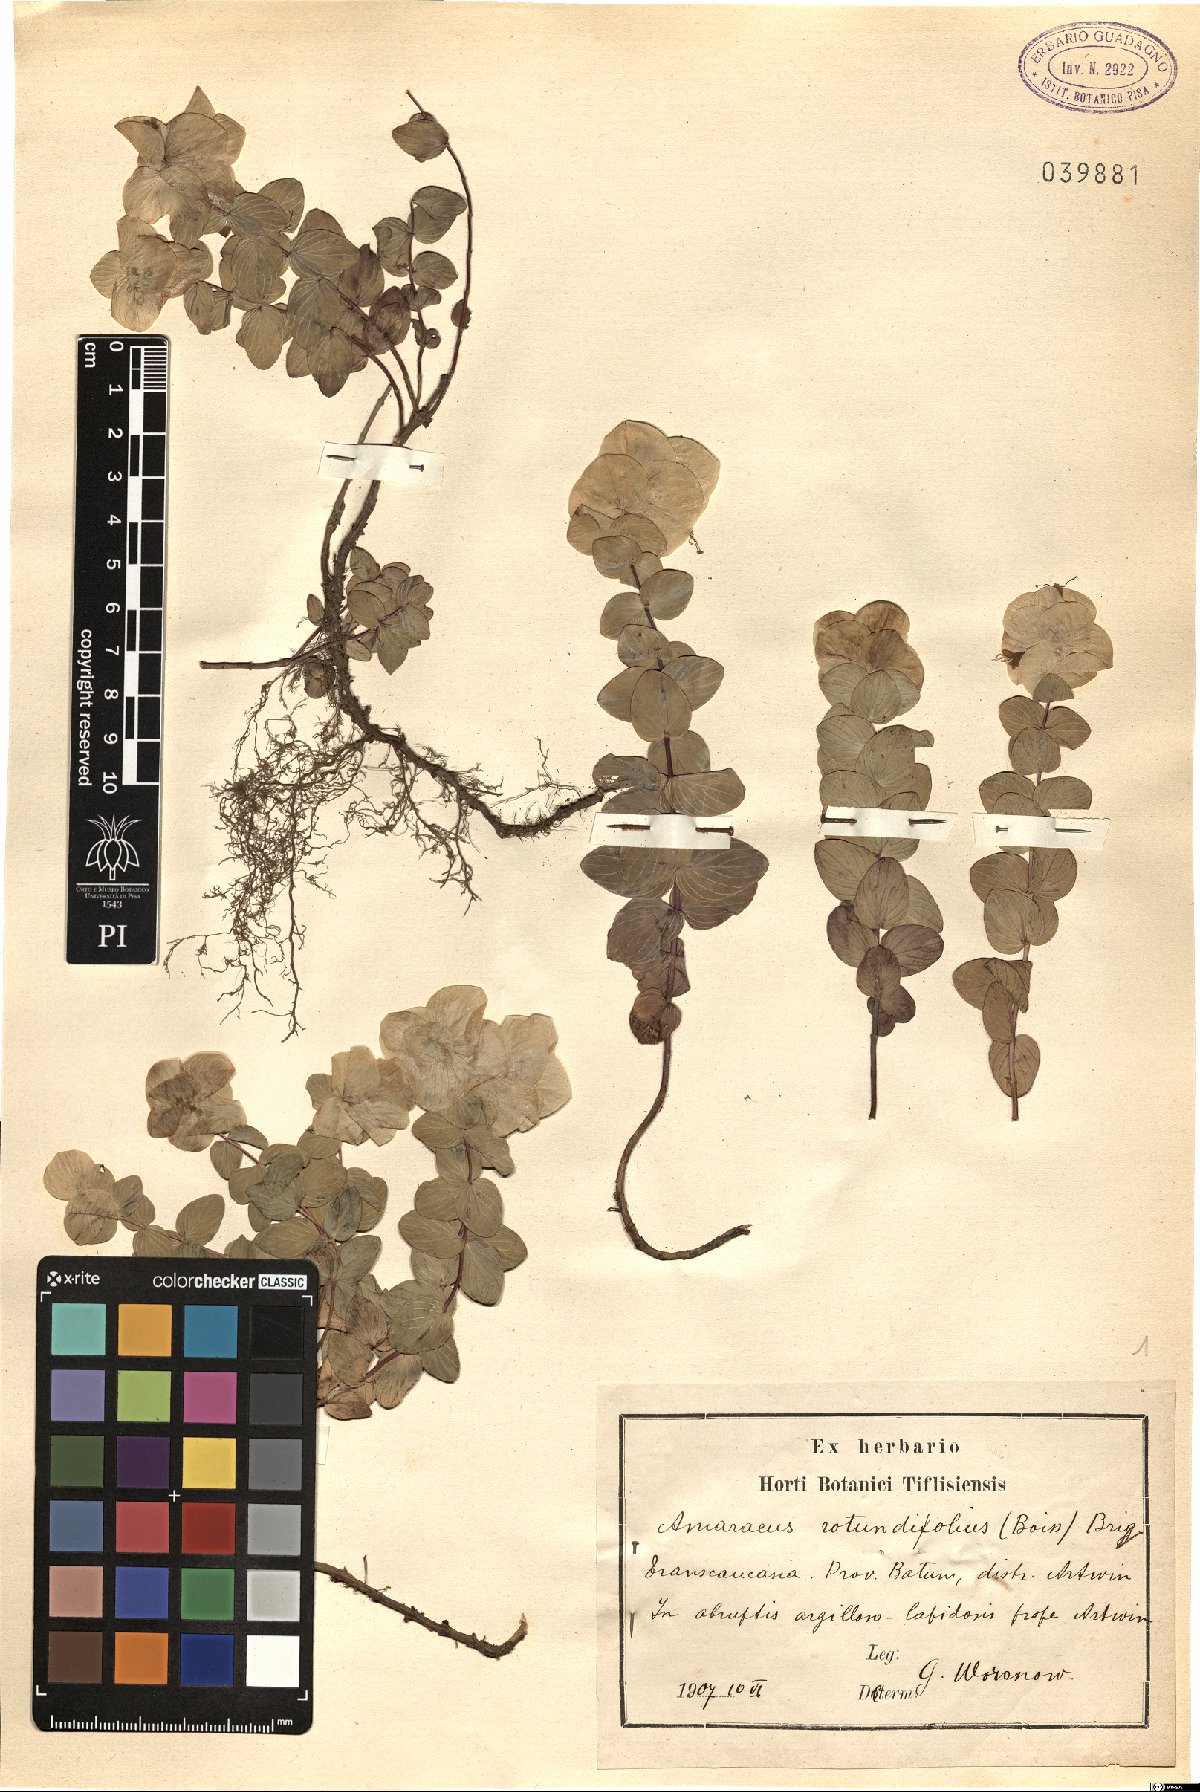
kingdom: Plantae
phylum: Tracheophyta
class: Magnoliopsida
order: Lamiales
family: Lamiaceae
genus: Origanum
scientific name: Origanum rotundifolium
